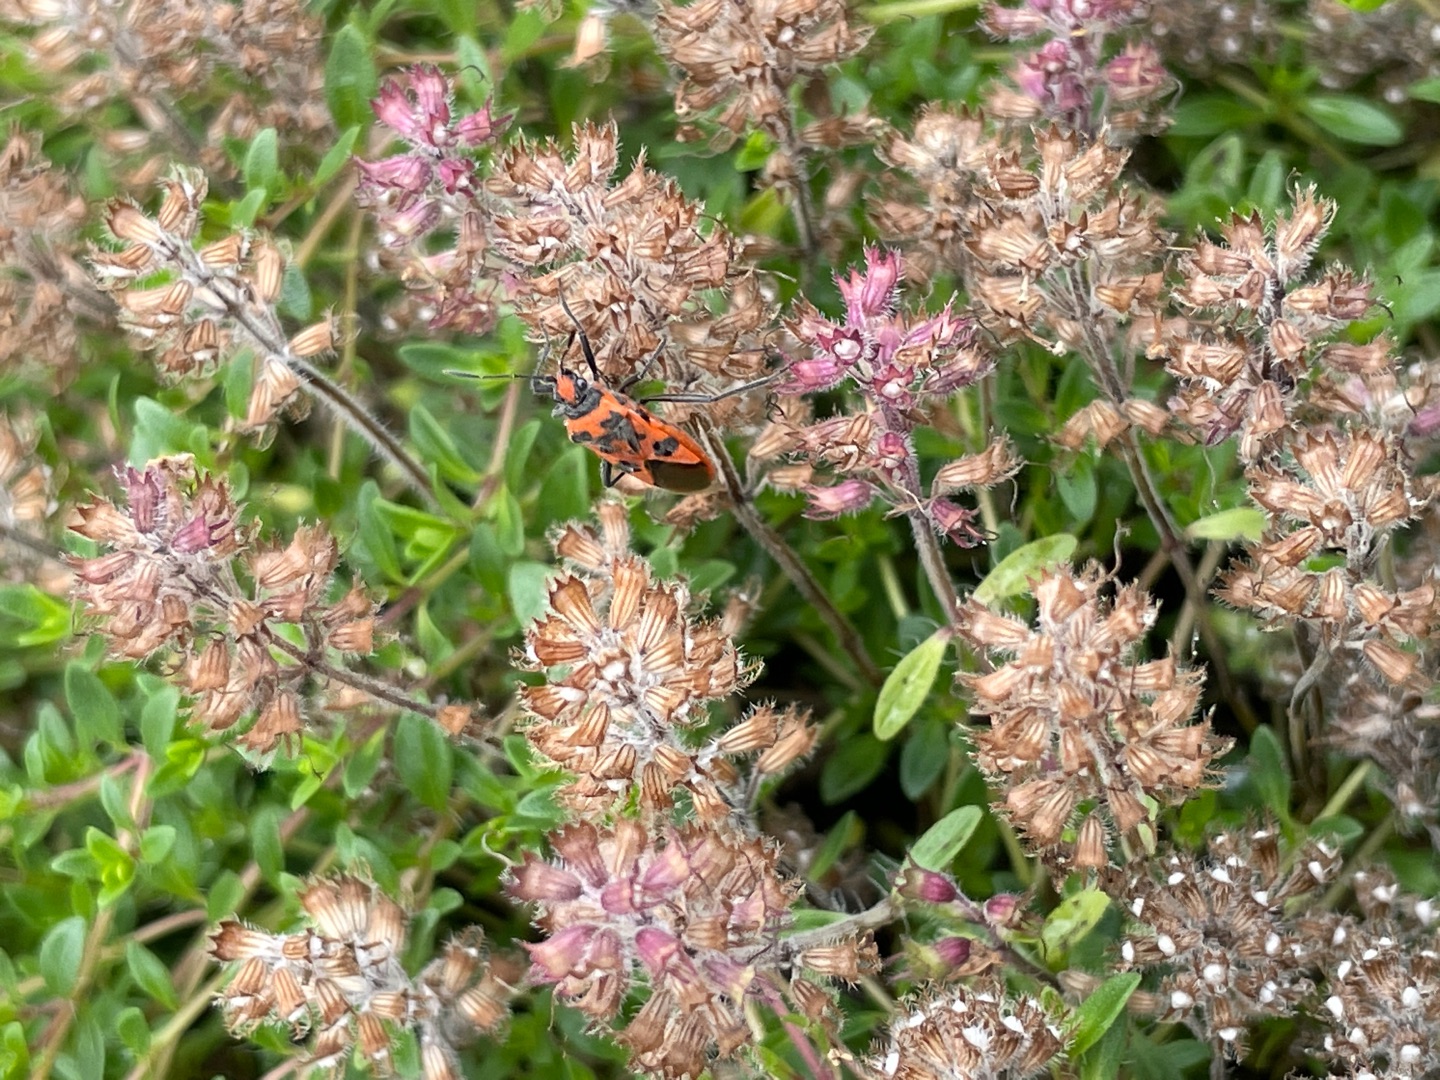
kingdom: Animalia
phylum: Arthropoda
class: Insecta
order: Hemiptera
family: Rhopalidae
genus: Corizus
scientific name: Corizus hyoscyami
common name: Rød kanttæge
